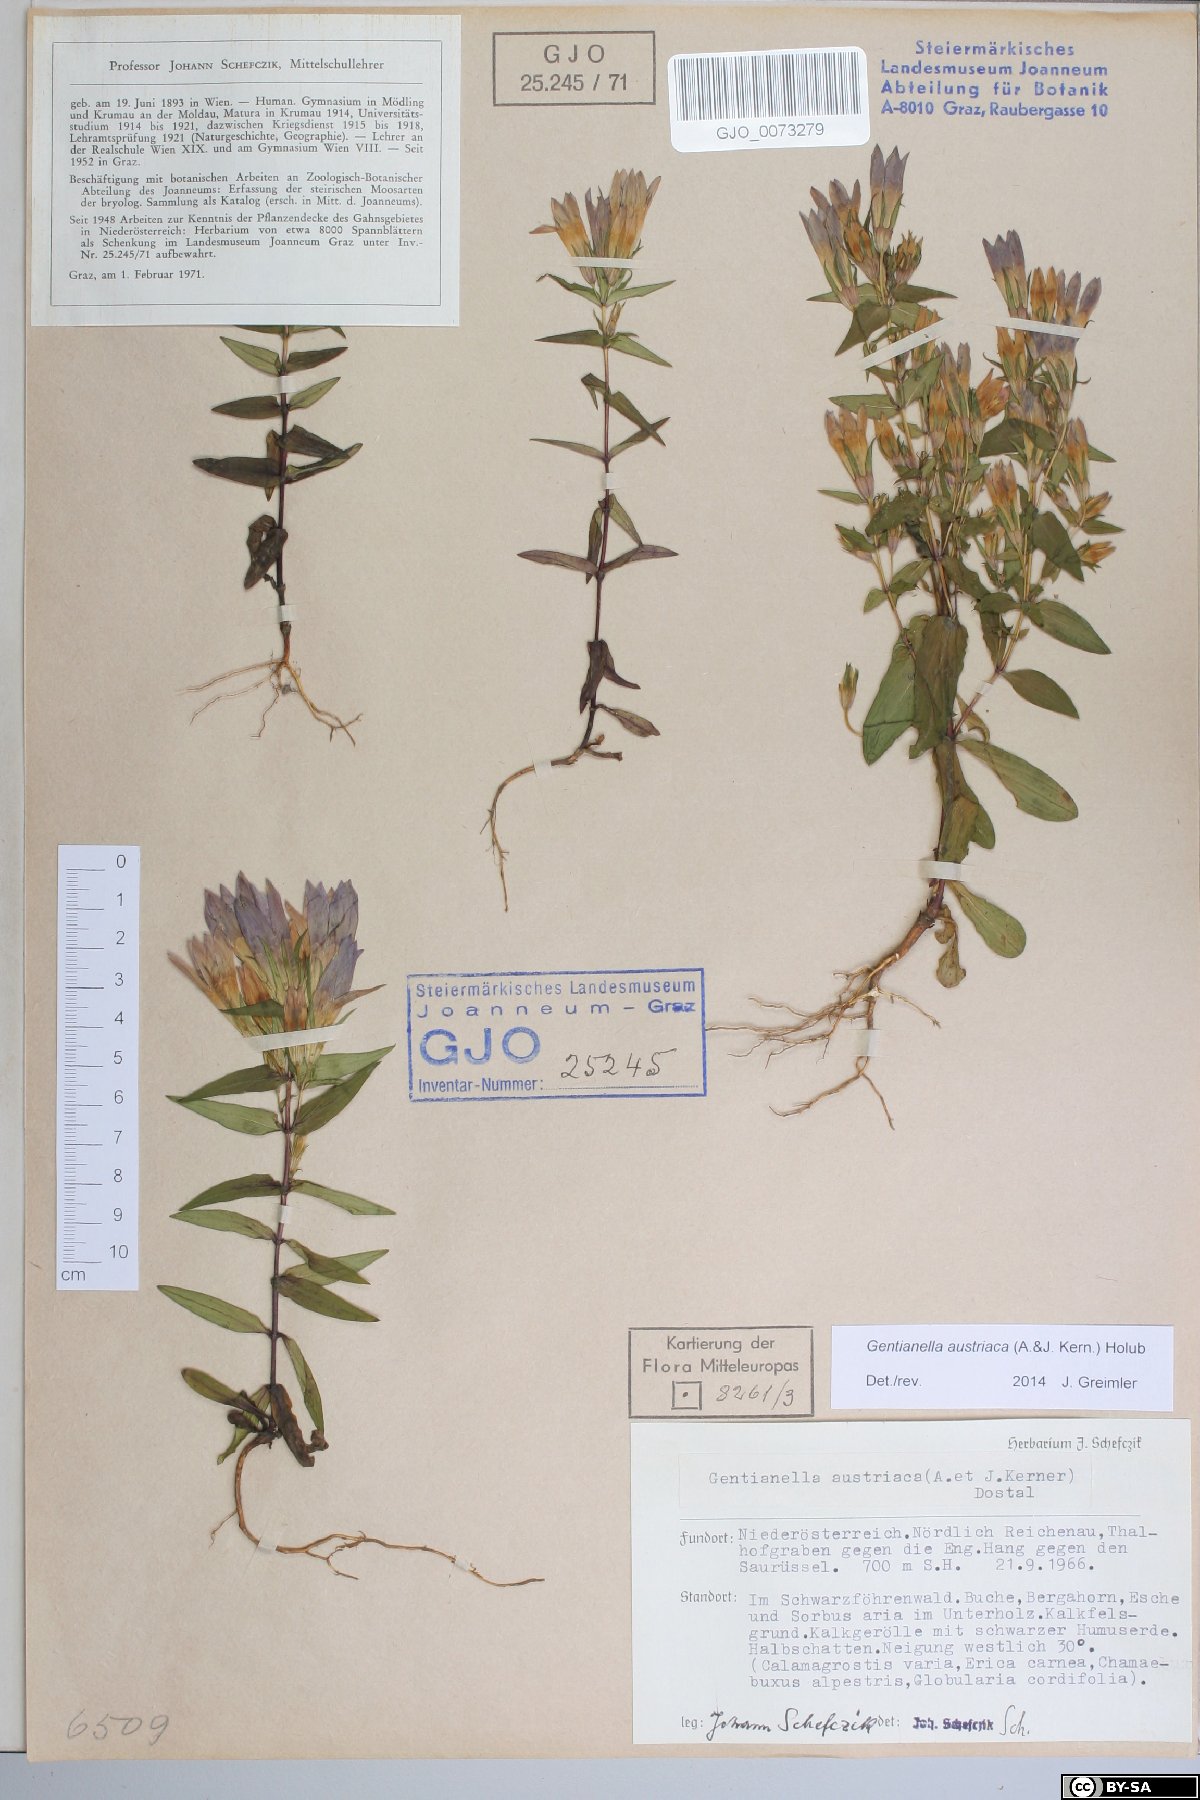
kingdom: Plantae
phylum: Tracheophyta
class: Magnoliopsida
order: Gentianales
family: Gentianaceae
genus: Gentianella
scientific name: Gentianella austriaca
